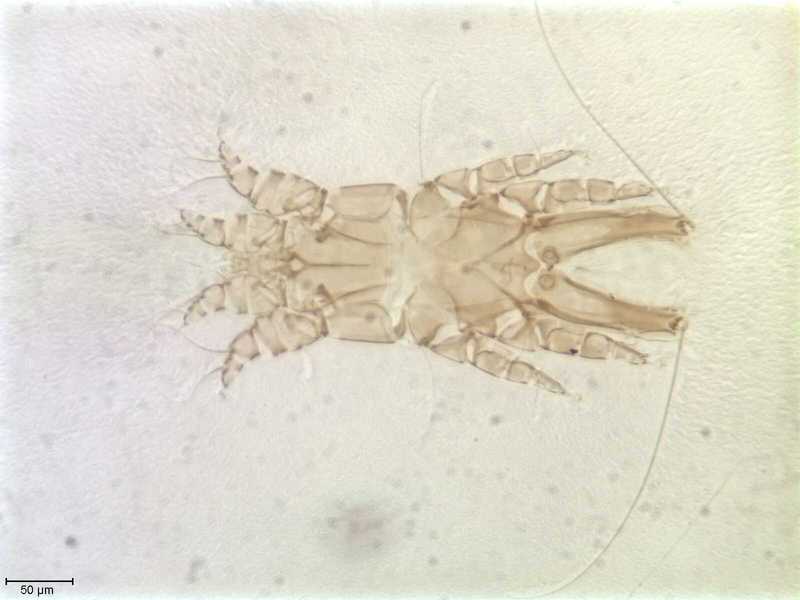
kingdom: Animalia
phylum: Arthropoda
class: Arachnida
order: Sarcoptiformes
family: Alloptidae
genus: Brephosceles
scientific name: Brephosceles
